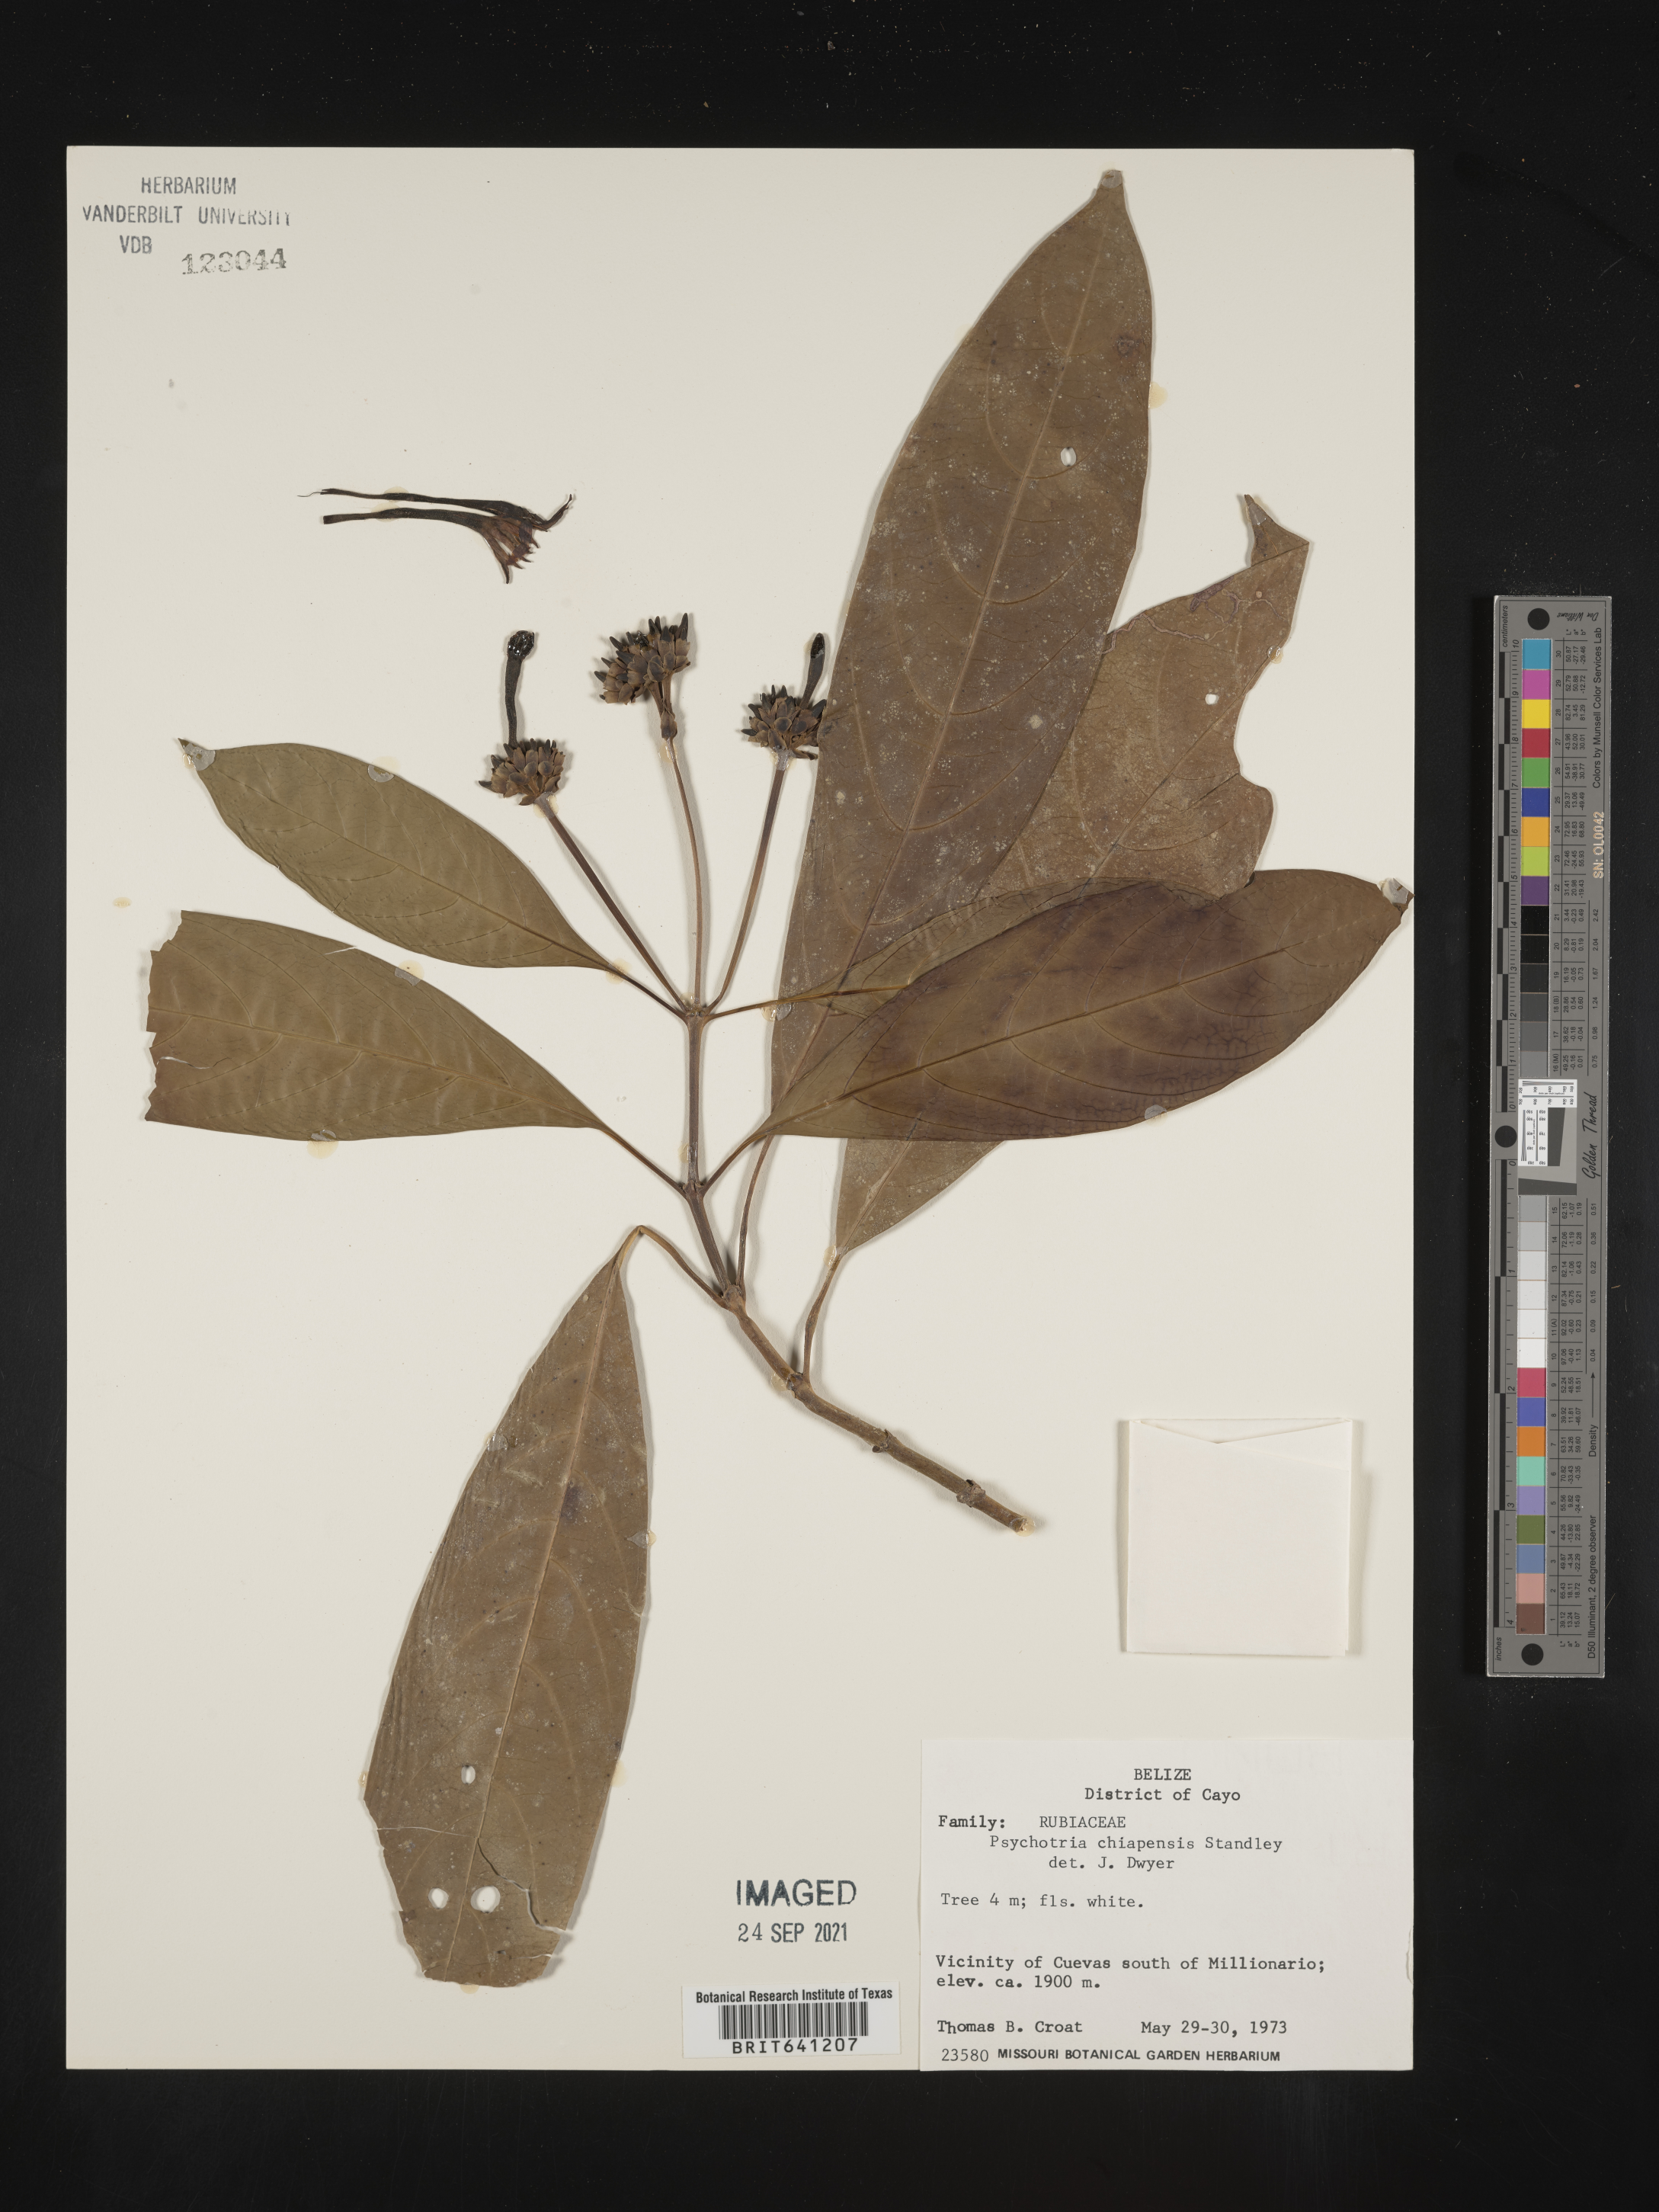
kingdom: Plantae
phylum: Tracheophyta
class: Magnoliopsida
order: Gentianales
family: Rubiaceae
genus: Psychotria
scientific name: Psychotria
